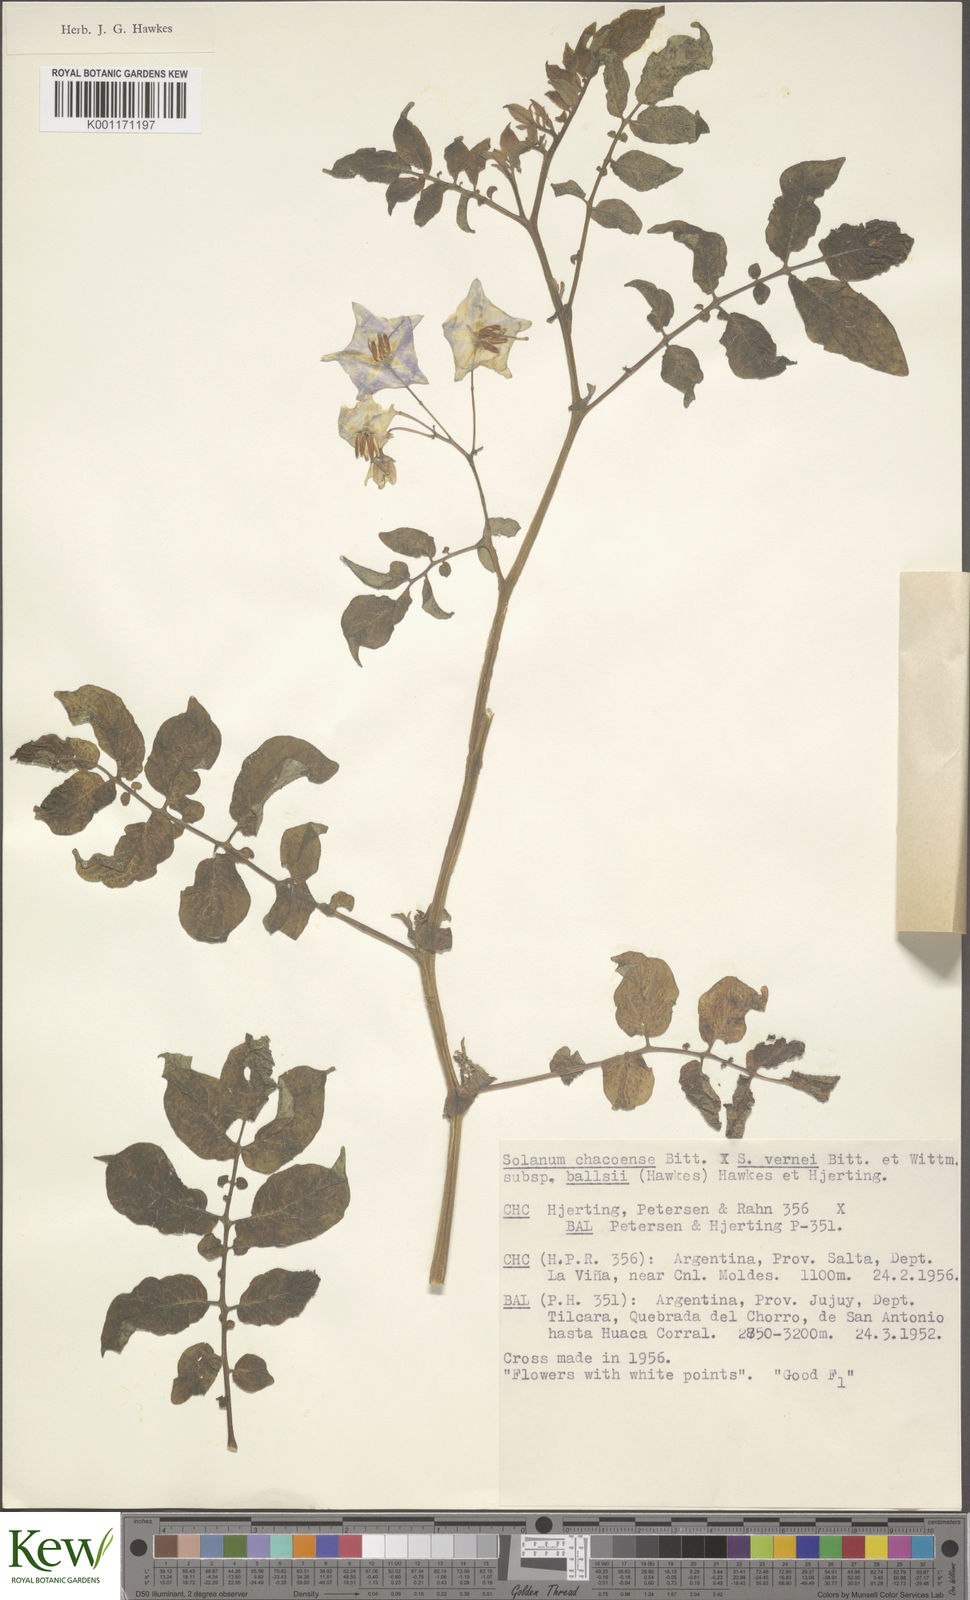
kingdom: Plantae
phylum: Tracheophyta
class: Magnoliopsida
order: Solanales
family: Solanaceae
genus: Solanum
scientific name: Solanum vernei
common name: Purple potato
